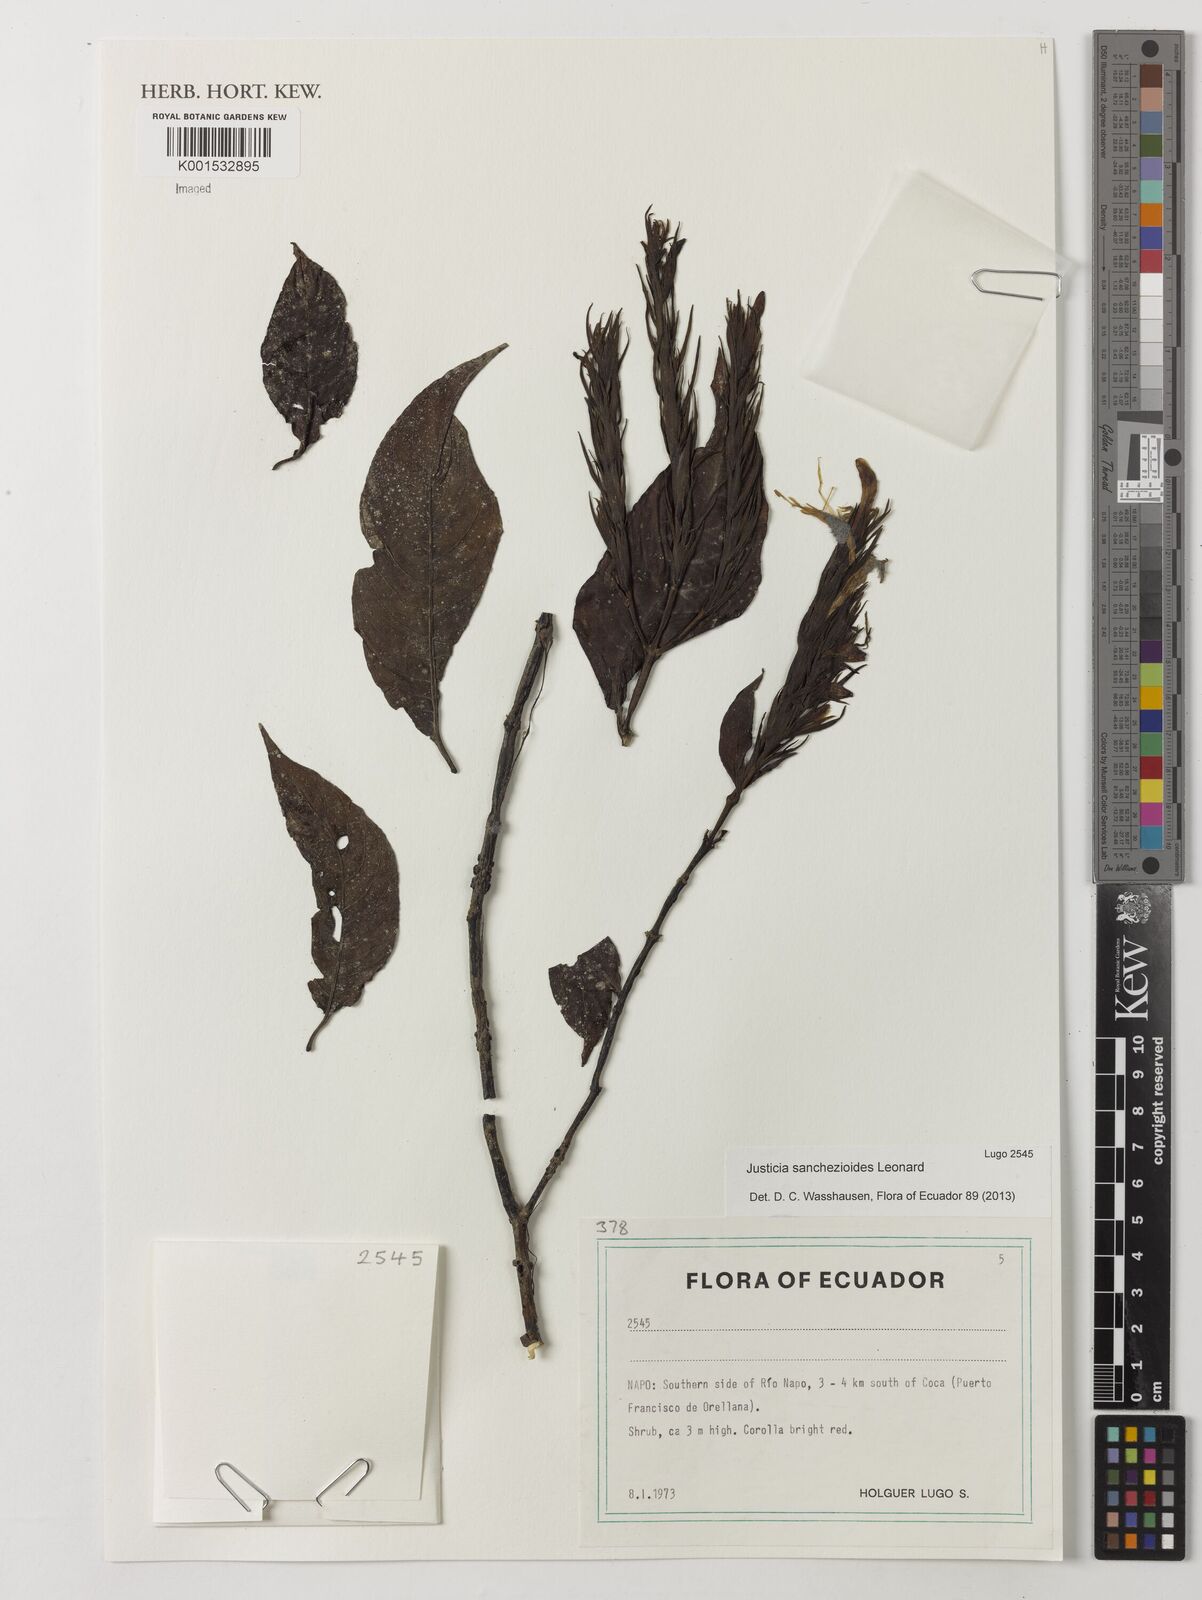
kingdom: Plantae
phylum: Tracheophyta
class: Magnoliopsida
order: Lamiales
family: Acanthaceae
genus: Justicia
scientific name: Justicia sanchezioides
